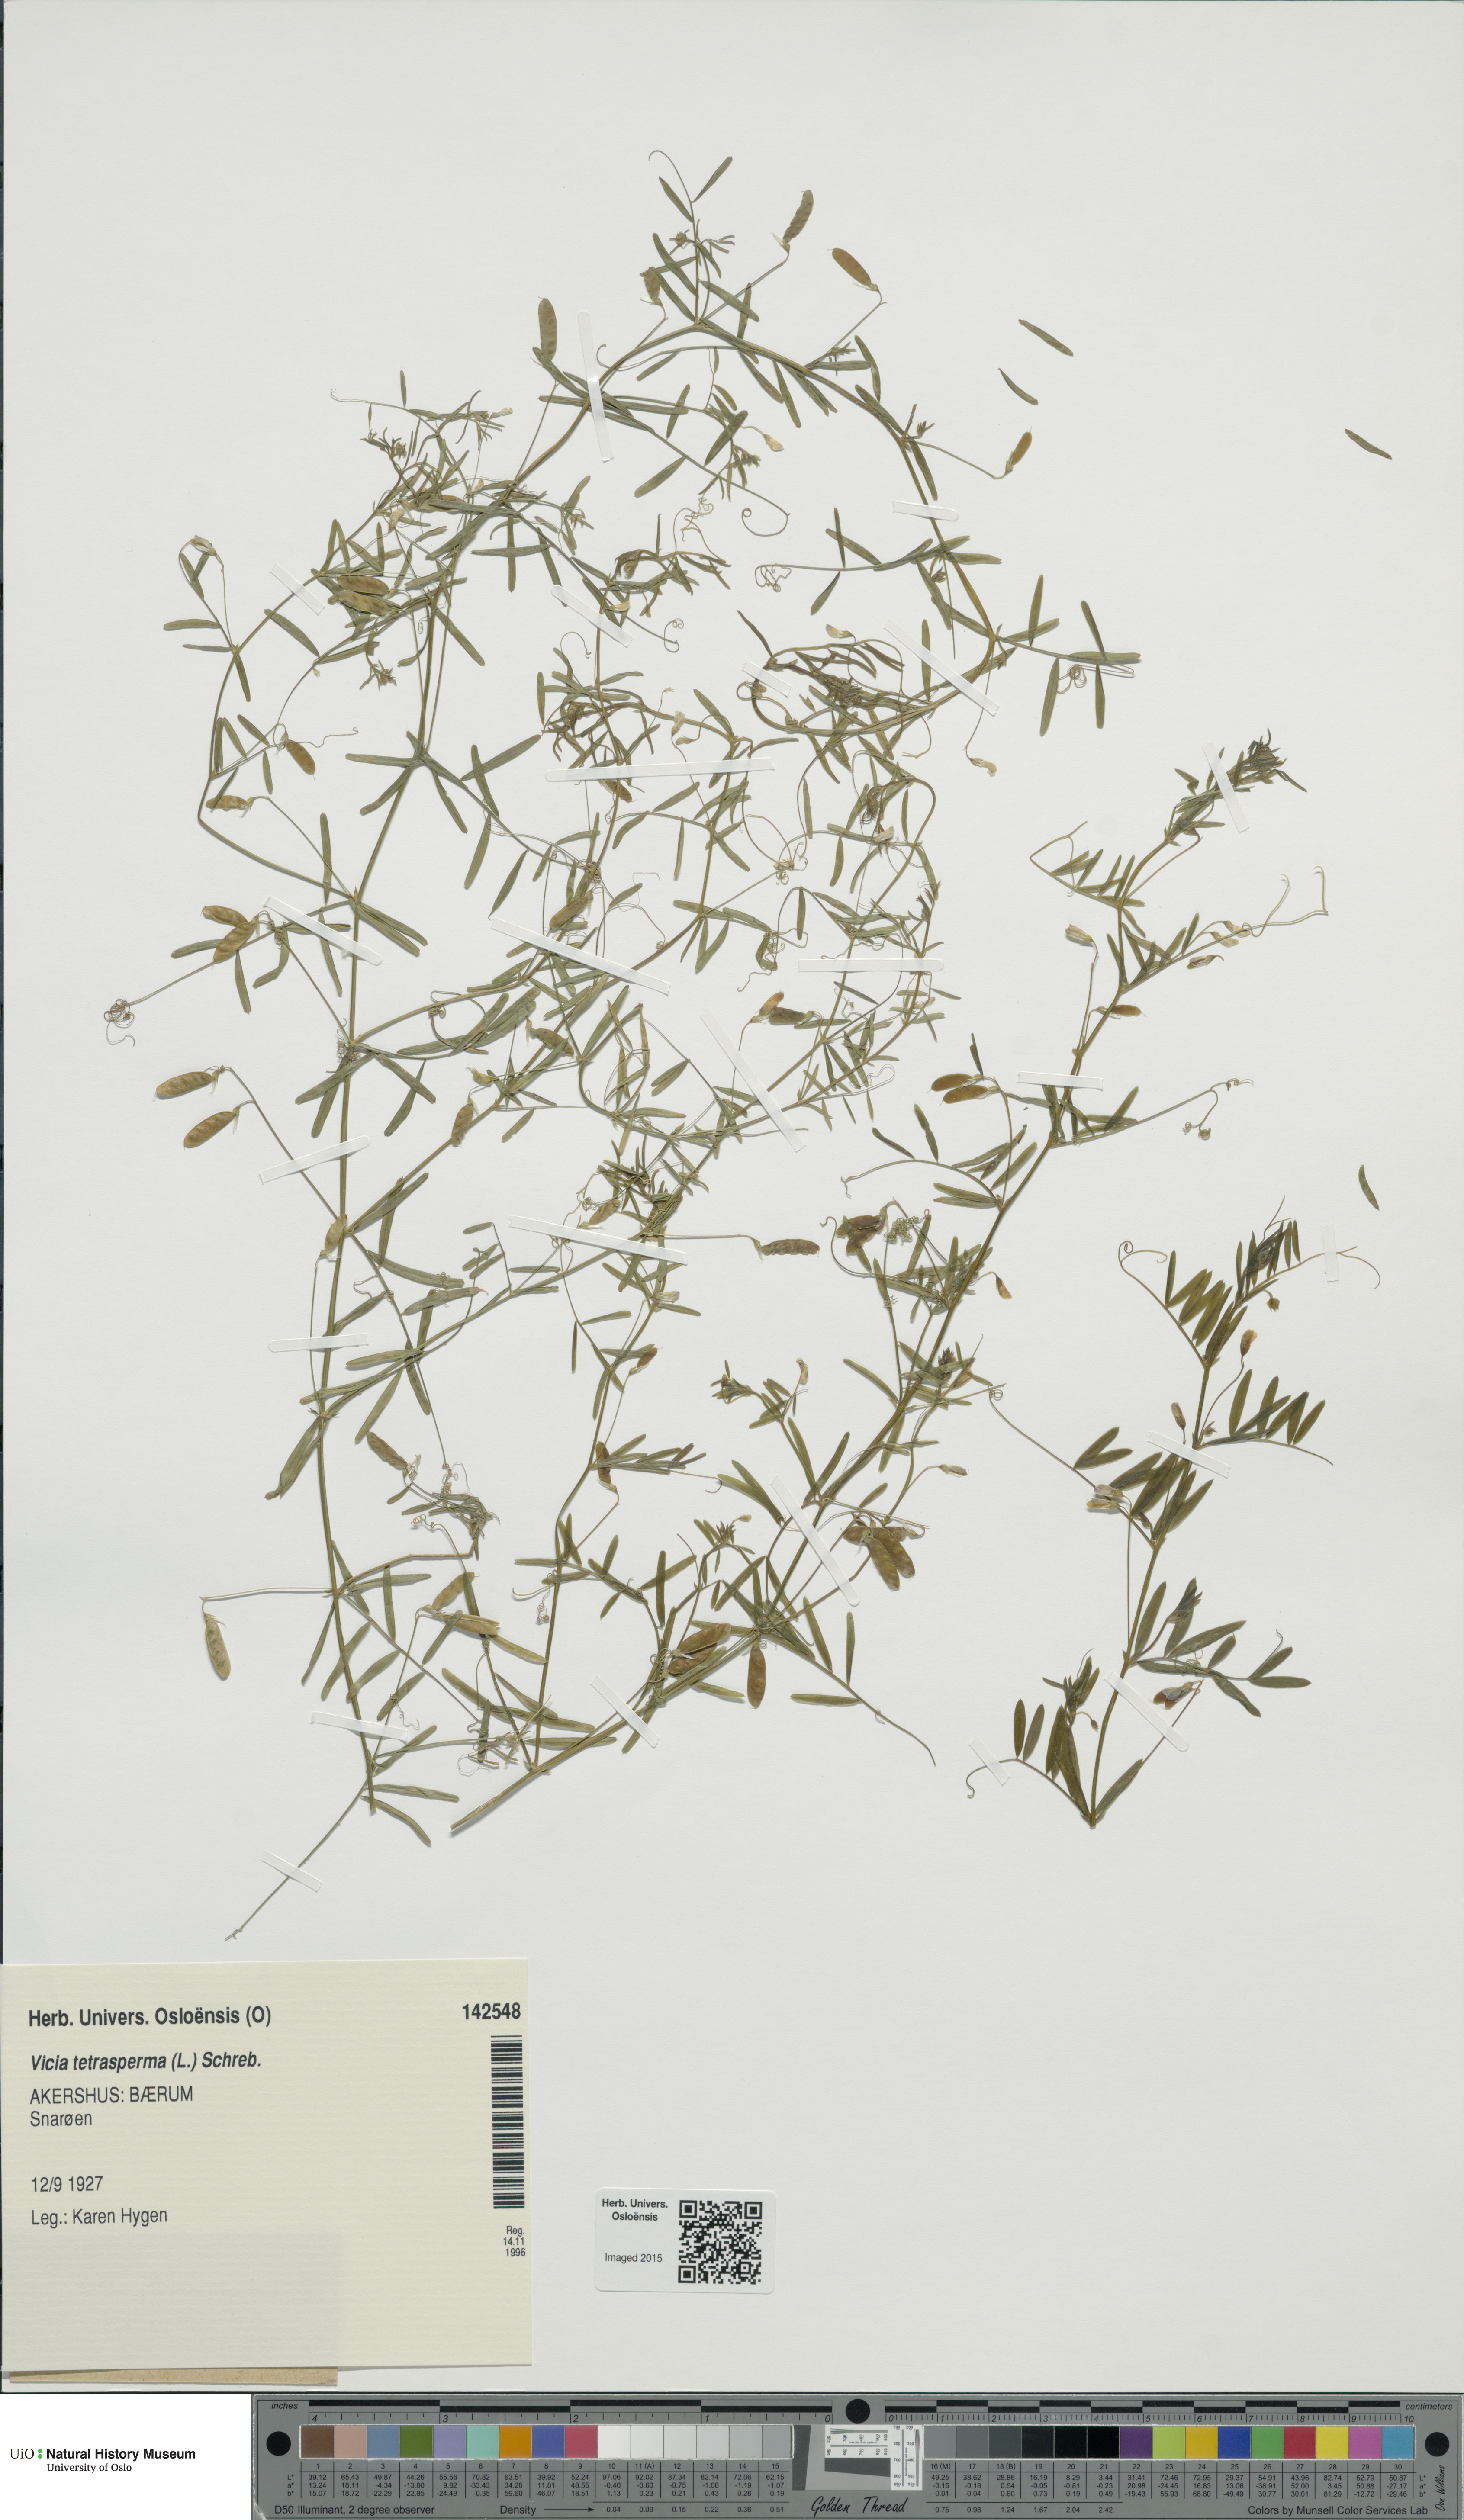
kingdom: Plantae
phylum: Tracheophyta
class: Magnoliopsida
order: Fabales
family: Fabaceae
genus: Vicia
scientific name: Vicia tetrasperma
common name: Smooth tare
